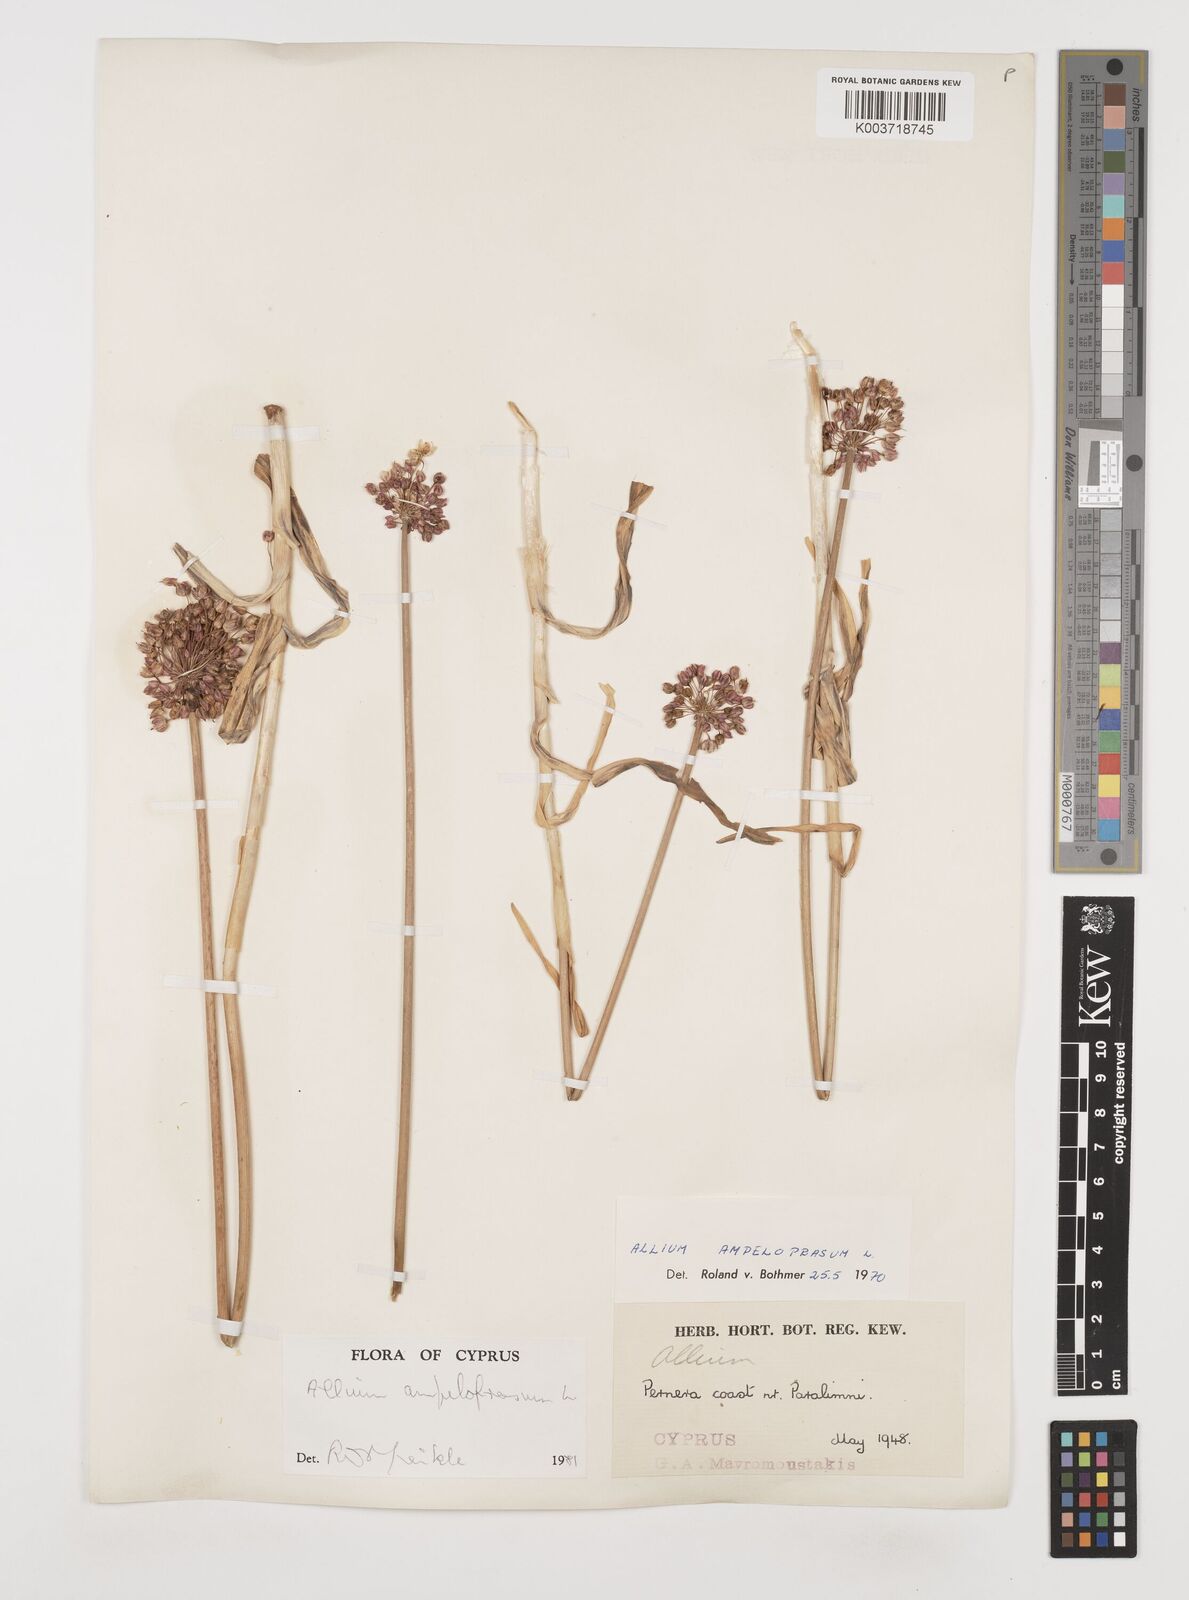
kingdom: Plantae
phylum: Tracheophyta
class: Liliopsida
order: Asparagales
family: Amaryllidaceae
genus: Allium
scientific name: Allium rotundum
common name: Sand leek
